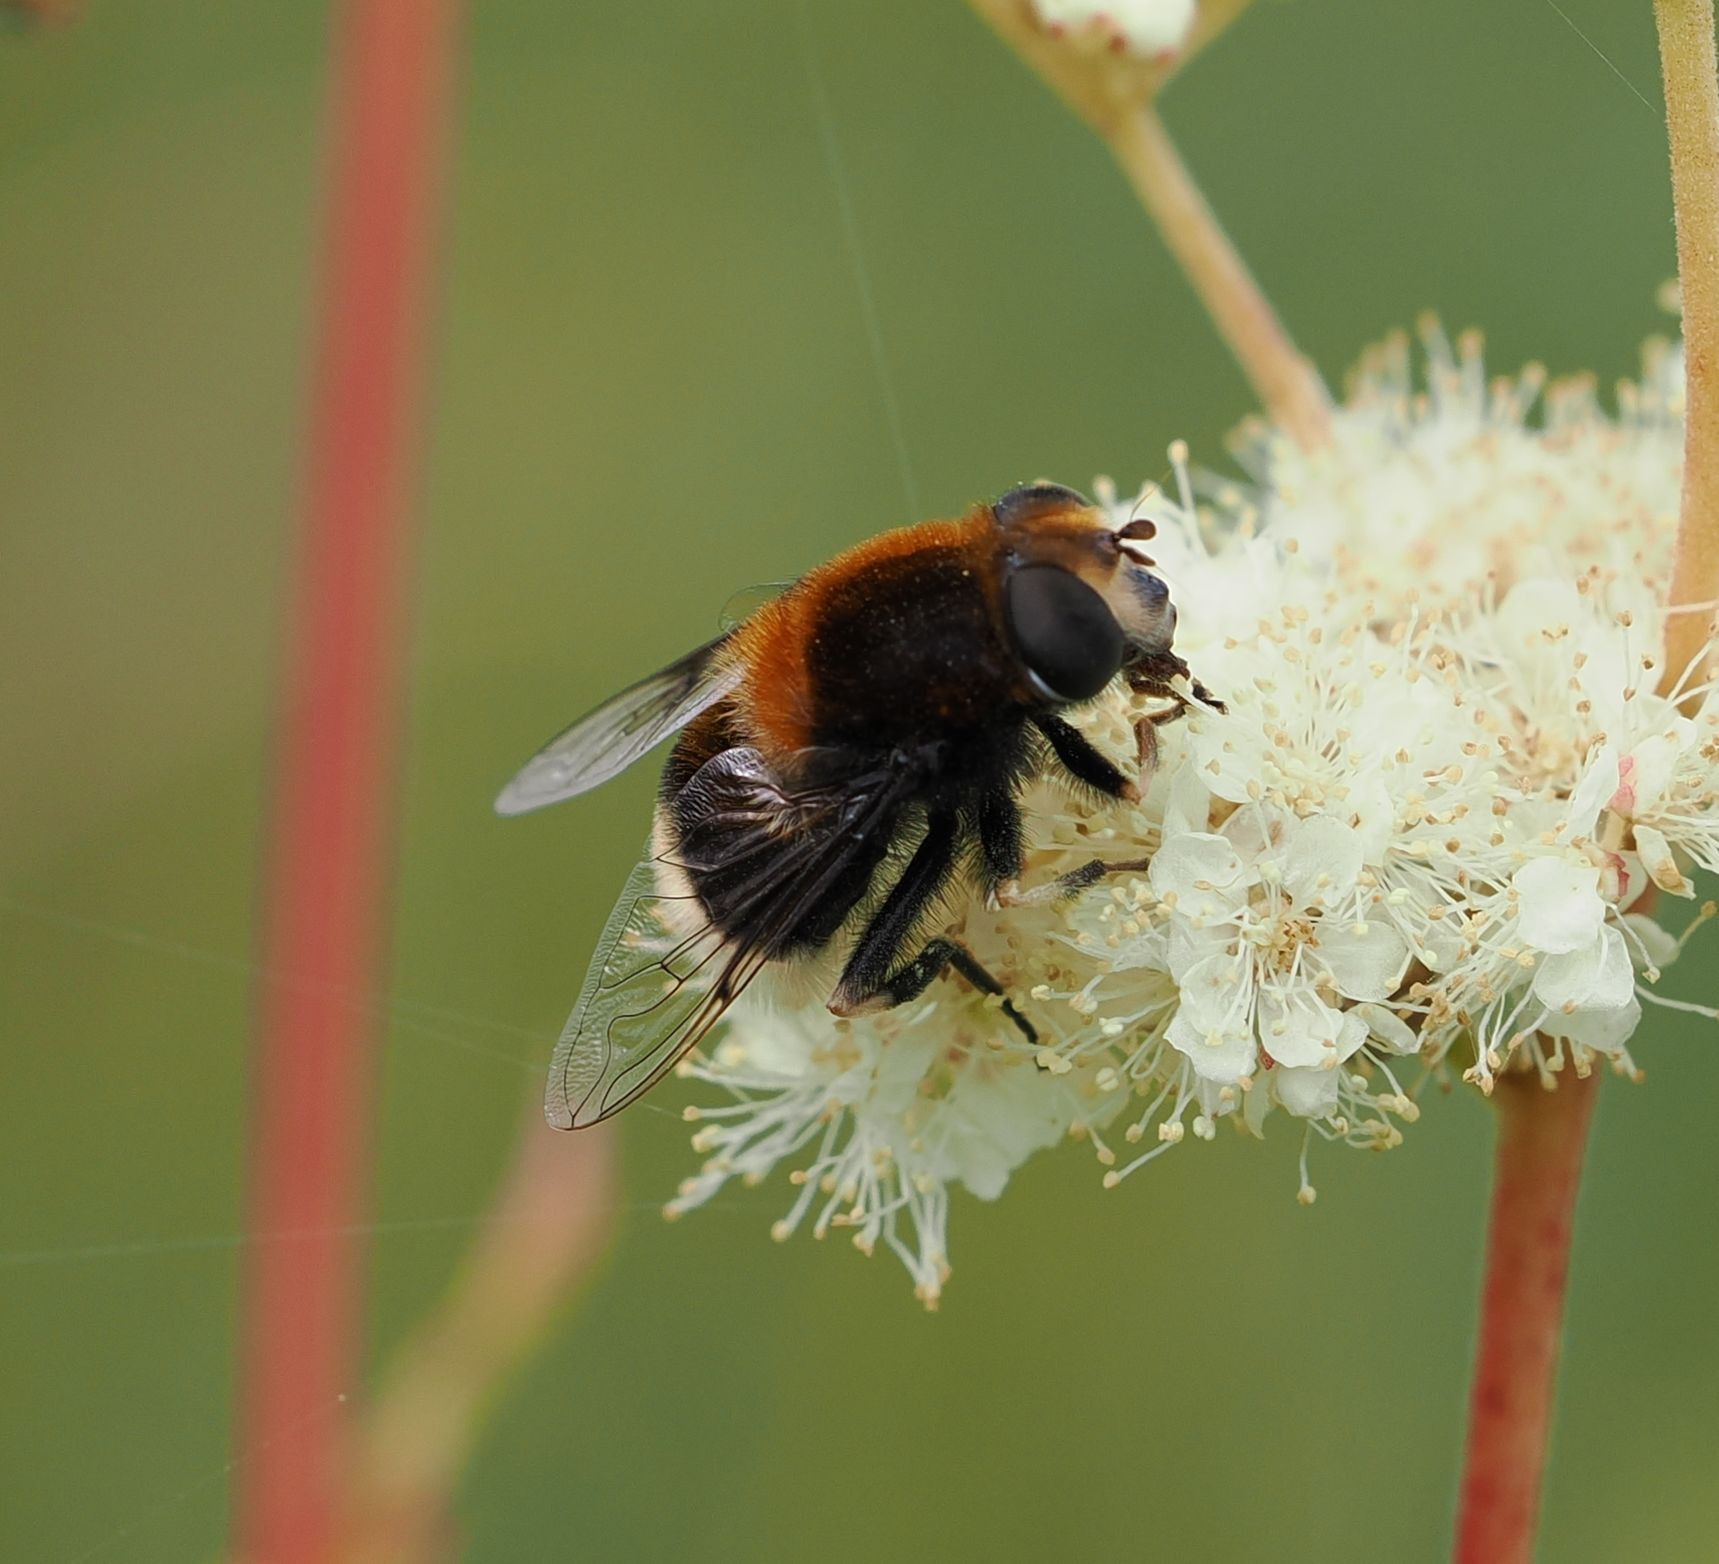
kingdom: Animalia
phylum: Arthropoda
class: Insecta
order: Diptera
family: Syrphidae
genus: Eristalis
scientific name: Eristalis intricaria
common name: Håret dyndflue
